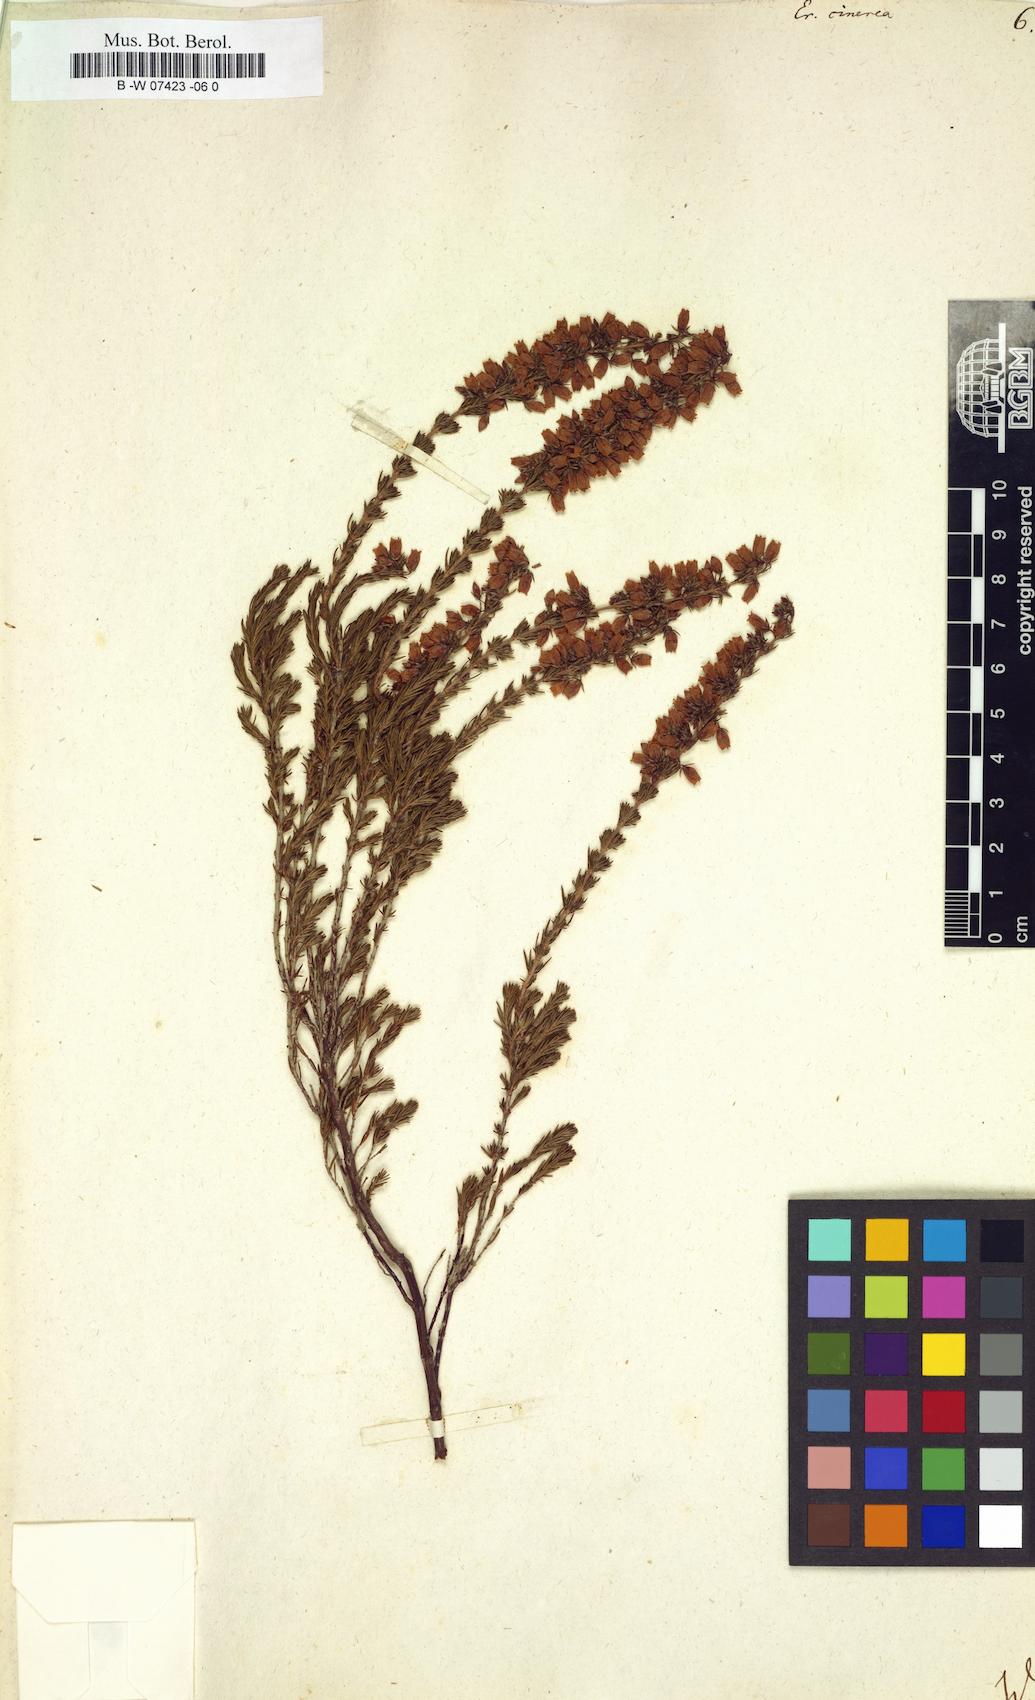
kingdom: Plantae
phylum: Tracheophyta
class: Magnoliopsida
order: Ericales
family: Ericaceae
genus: Erica
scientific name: Erica cinerea
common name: Bell heather
